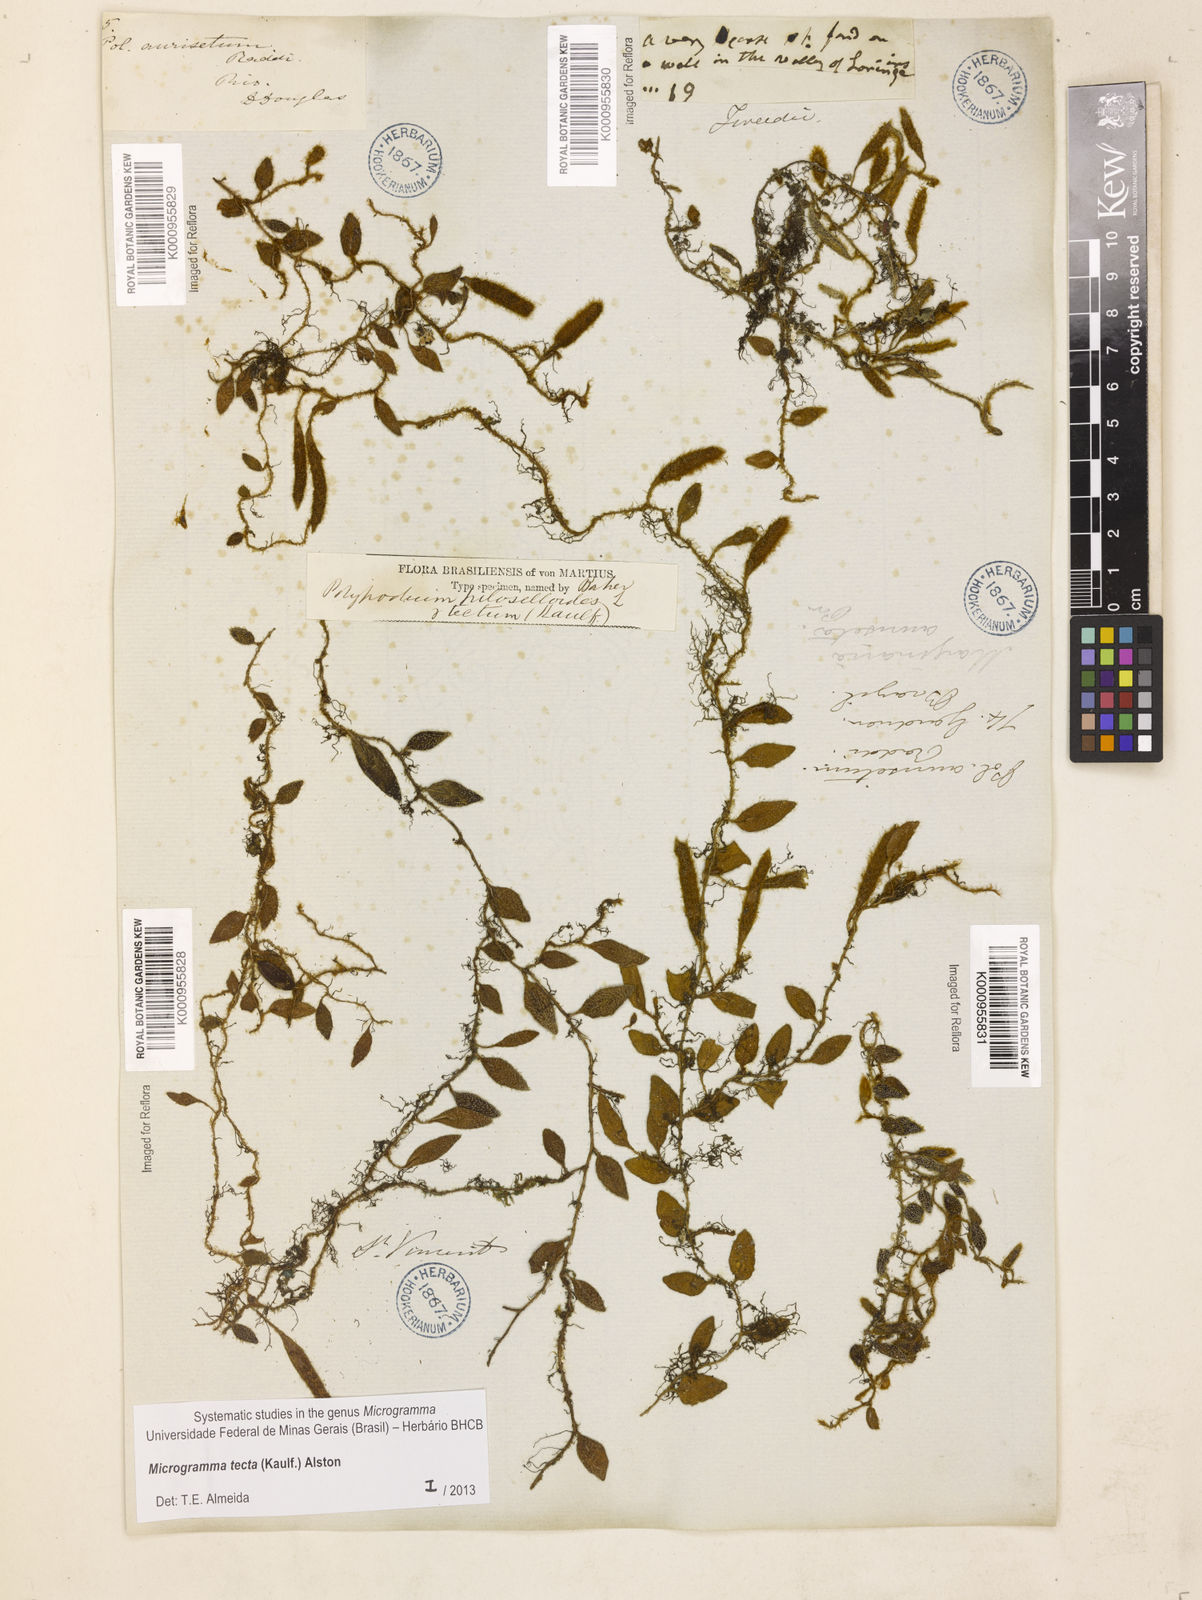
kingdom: Plantae
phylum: Tracheophyta
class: Polypodiopsida
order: Polypodiales
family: Polypodiaceae
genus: Microgramma
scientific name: Microgramma tecta
